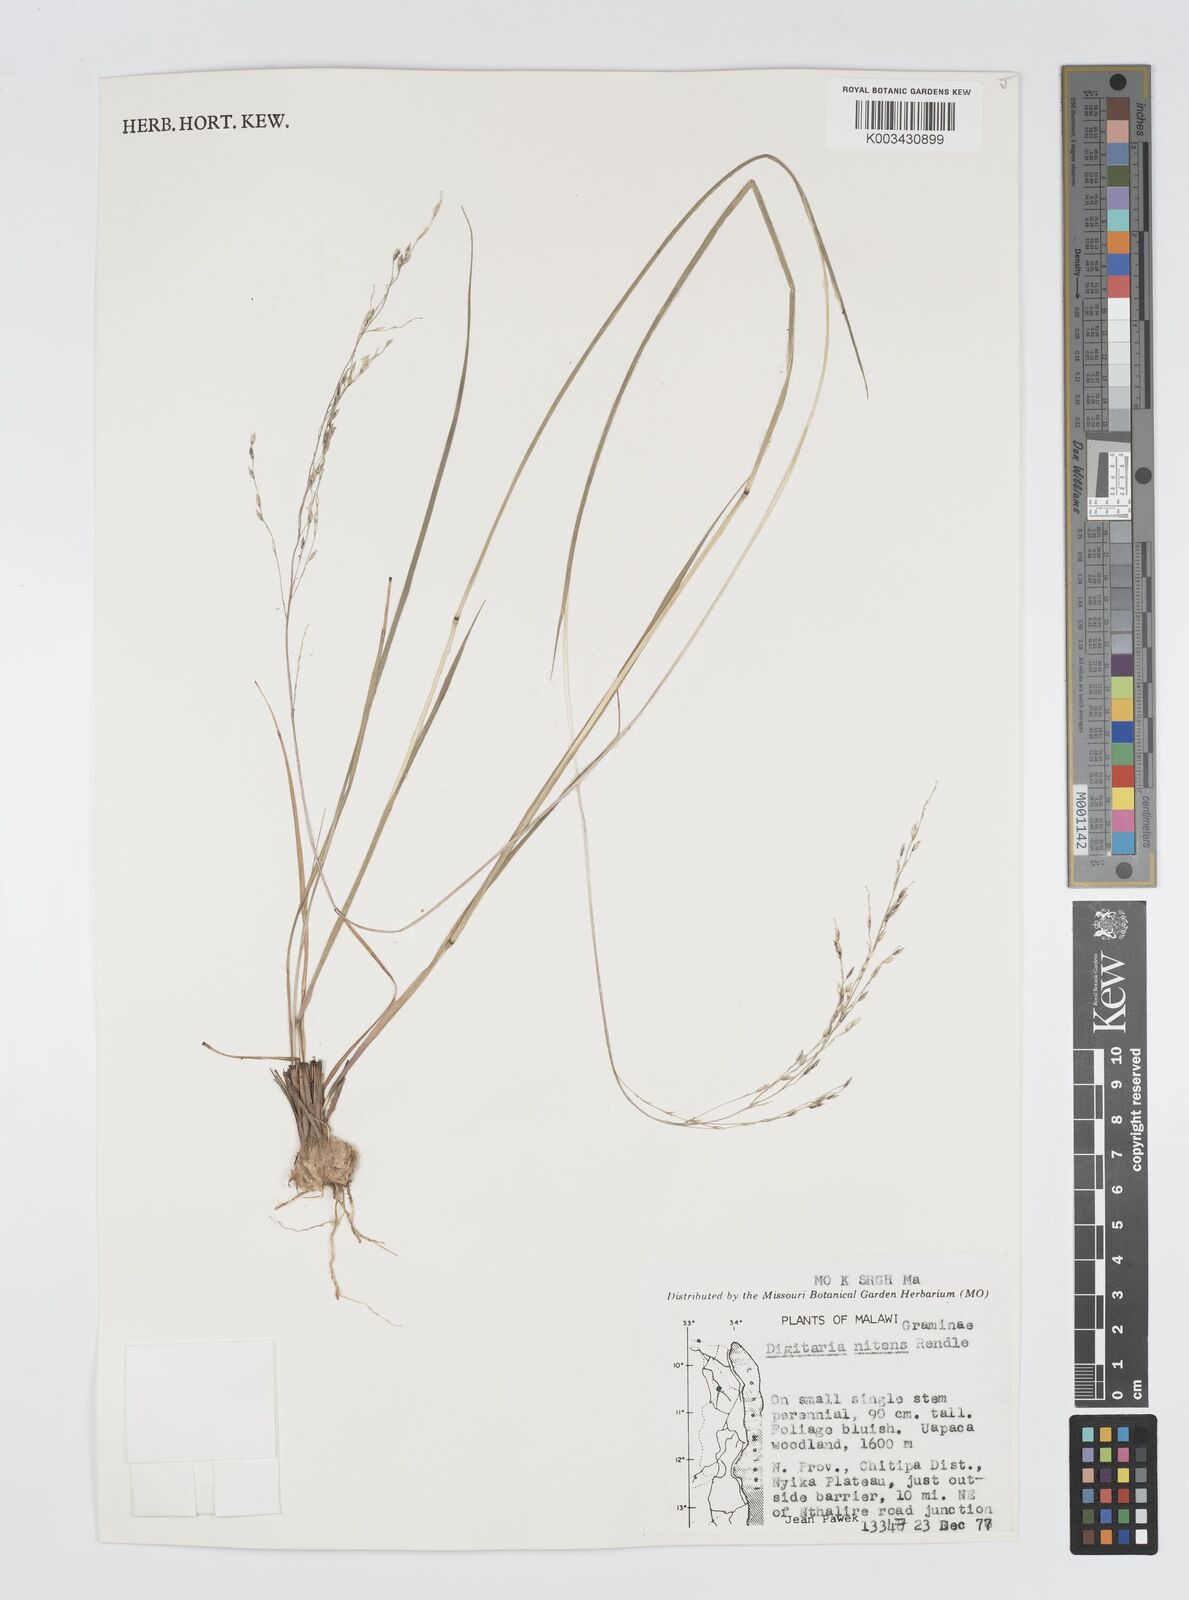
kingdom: Plantae
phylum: Tracheophyta
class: Liliopsida
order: Poales
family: Poaceae
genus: Digitaria
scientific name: Digitaria flaccida
